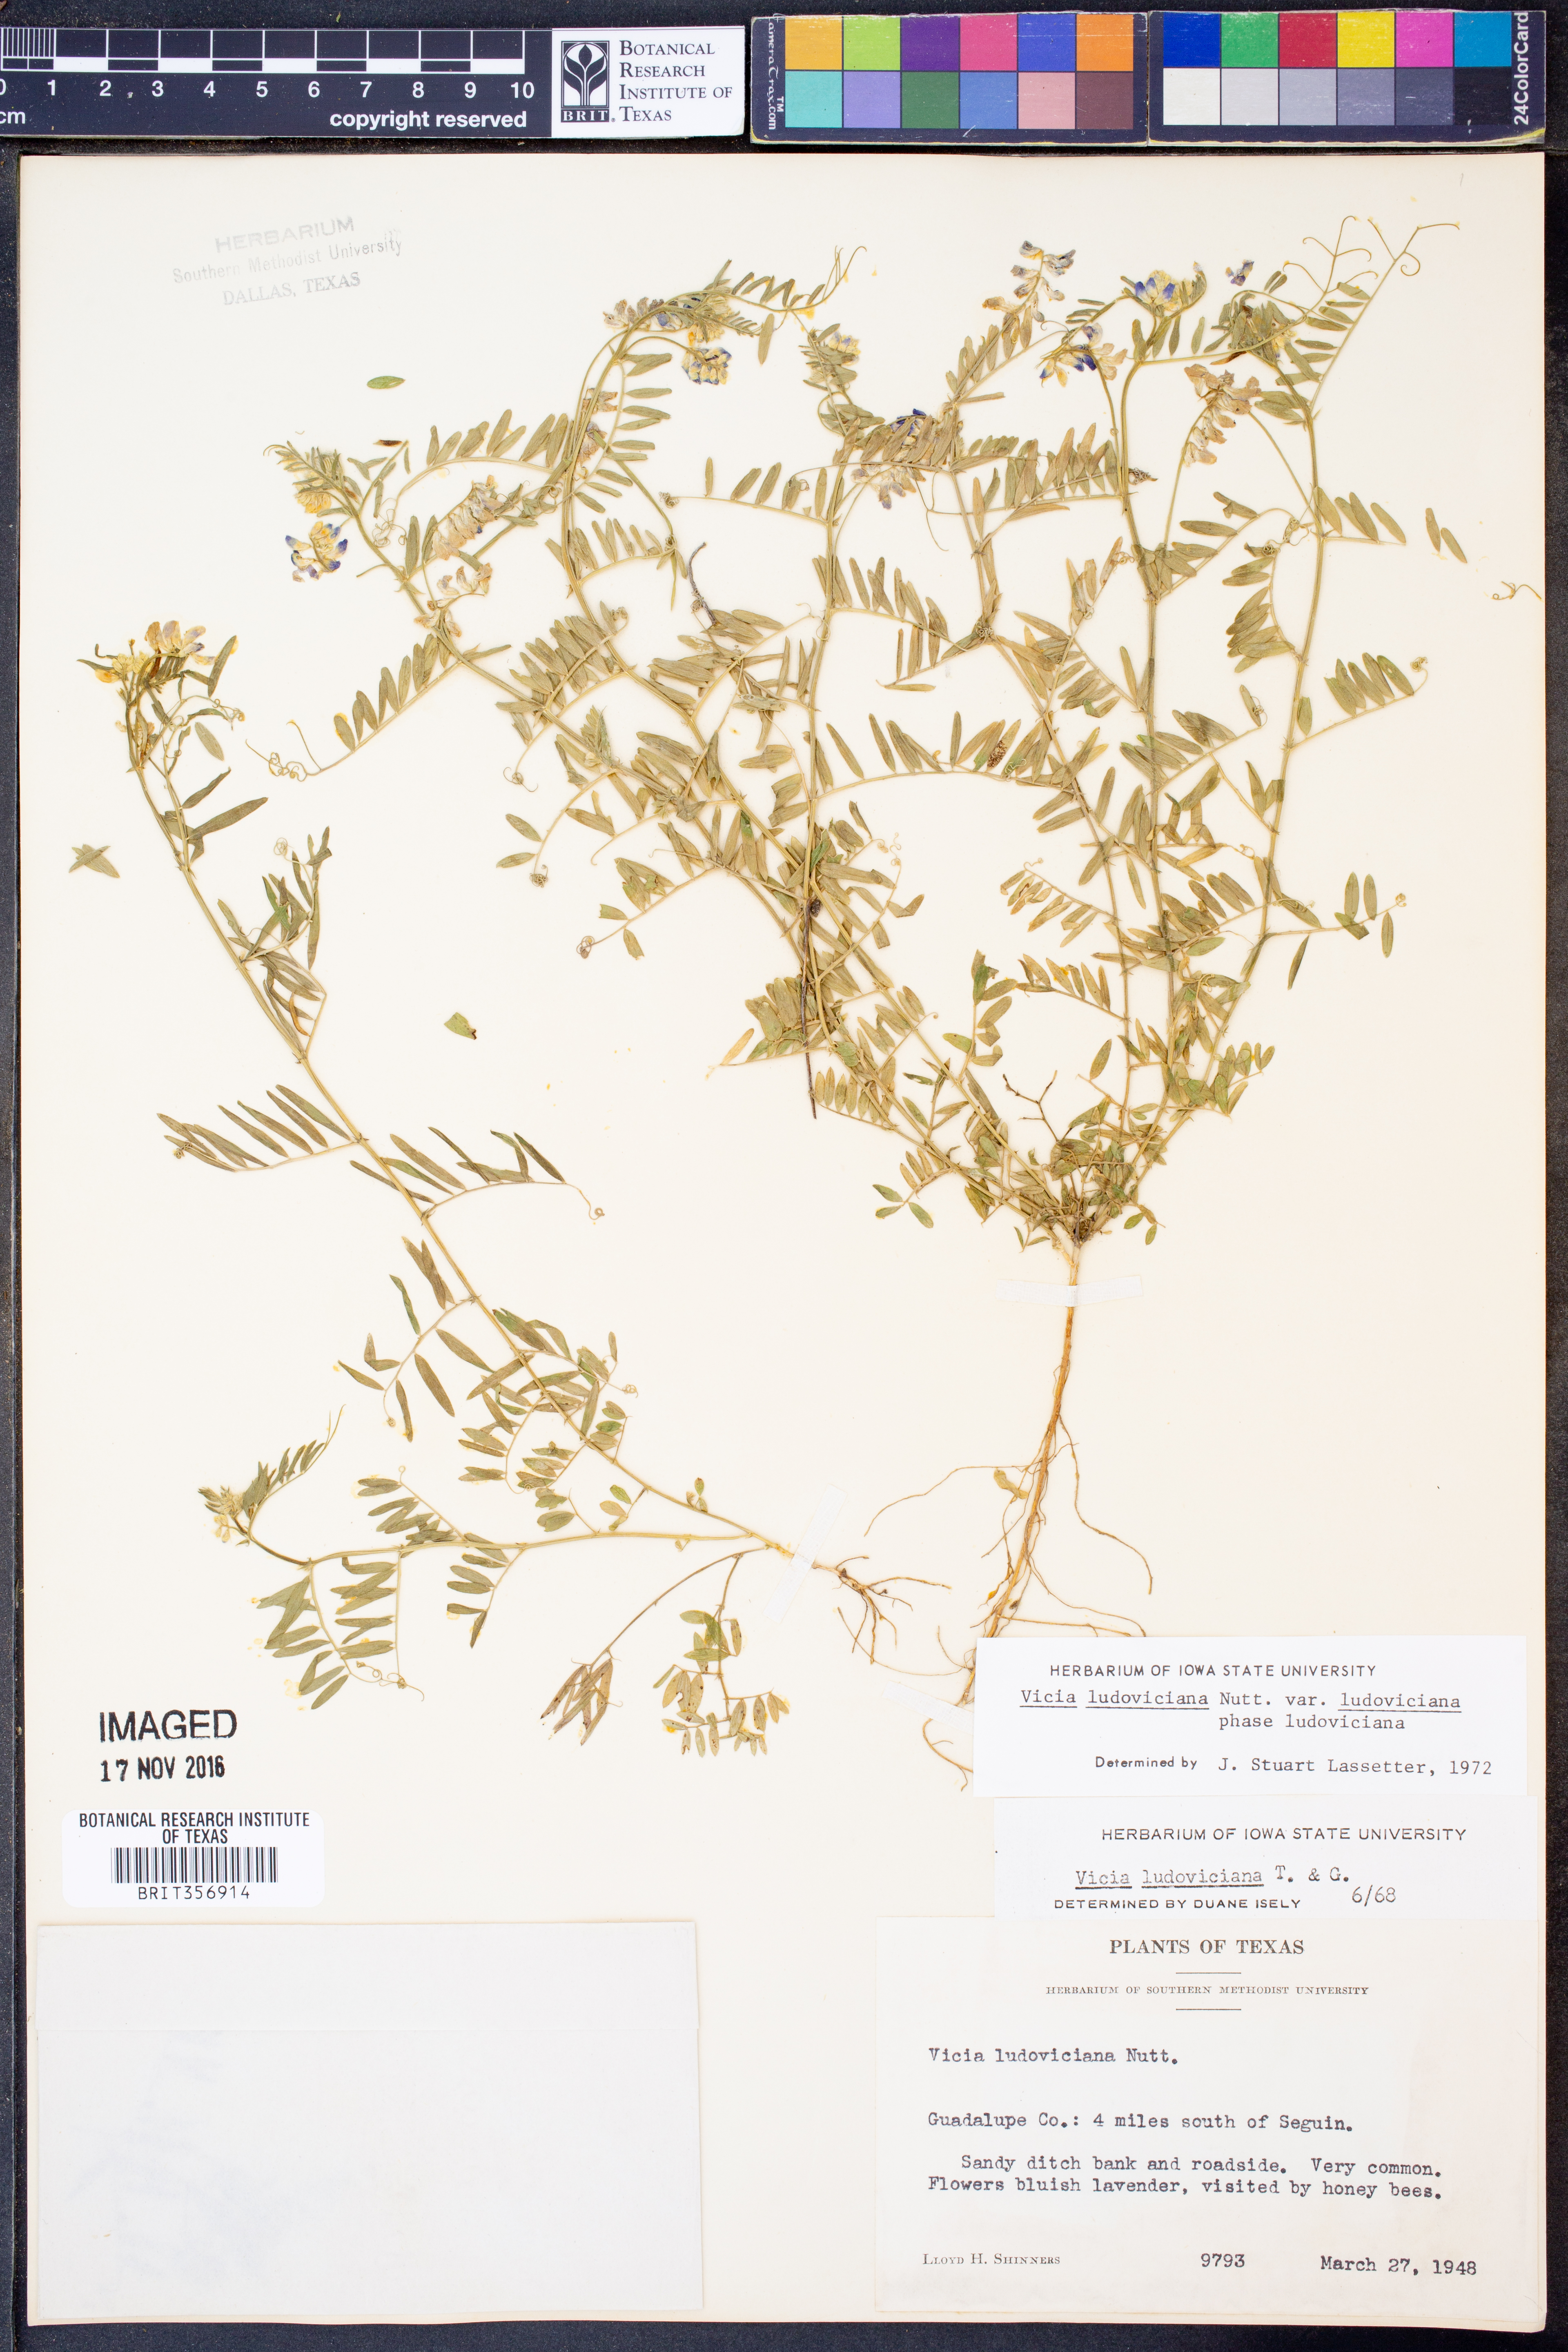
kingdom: Plantae
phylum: Tracheophyta
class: Magnoliopsida
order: Fabales
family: Fabaceae
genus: Vicia
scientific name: Vicia ludoviciana
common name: Louisiana vetch
